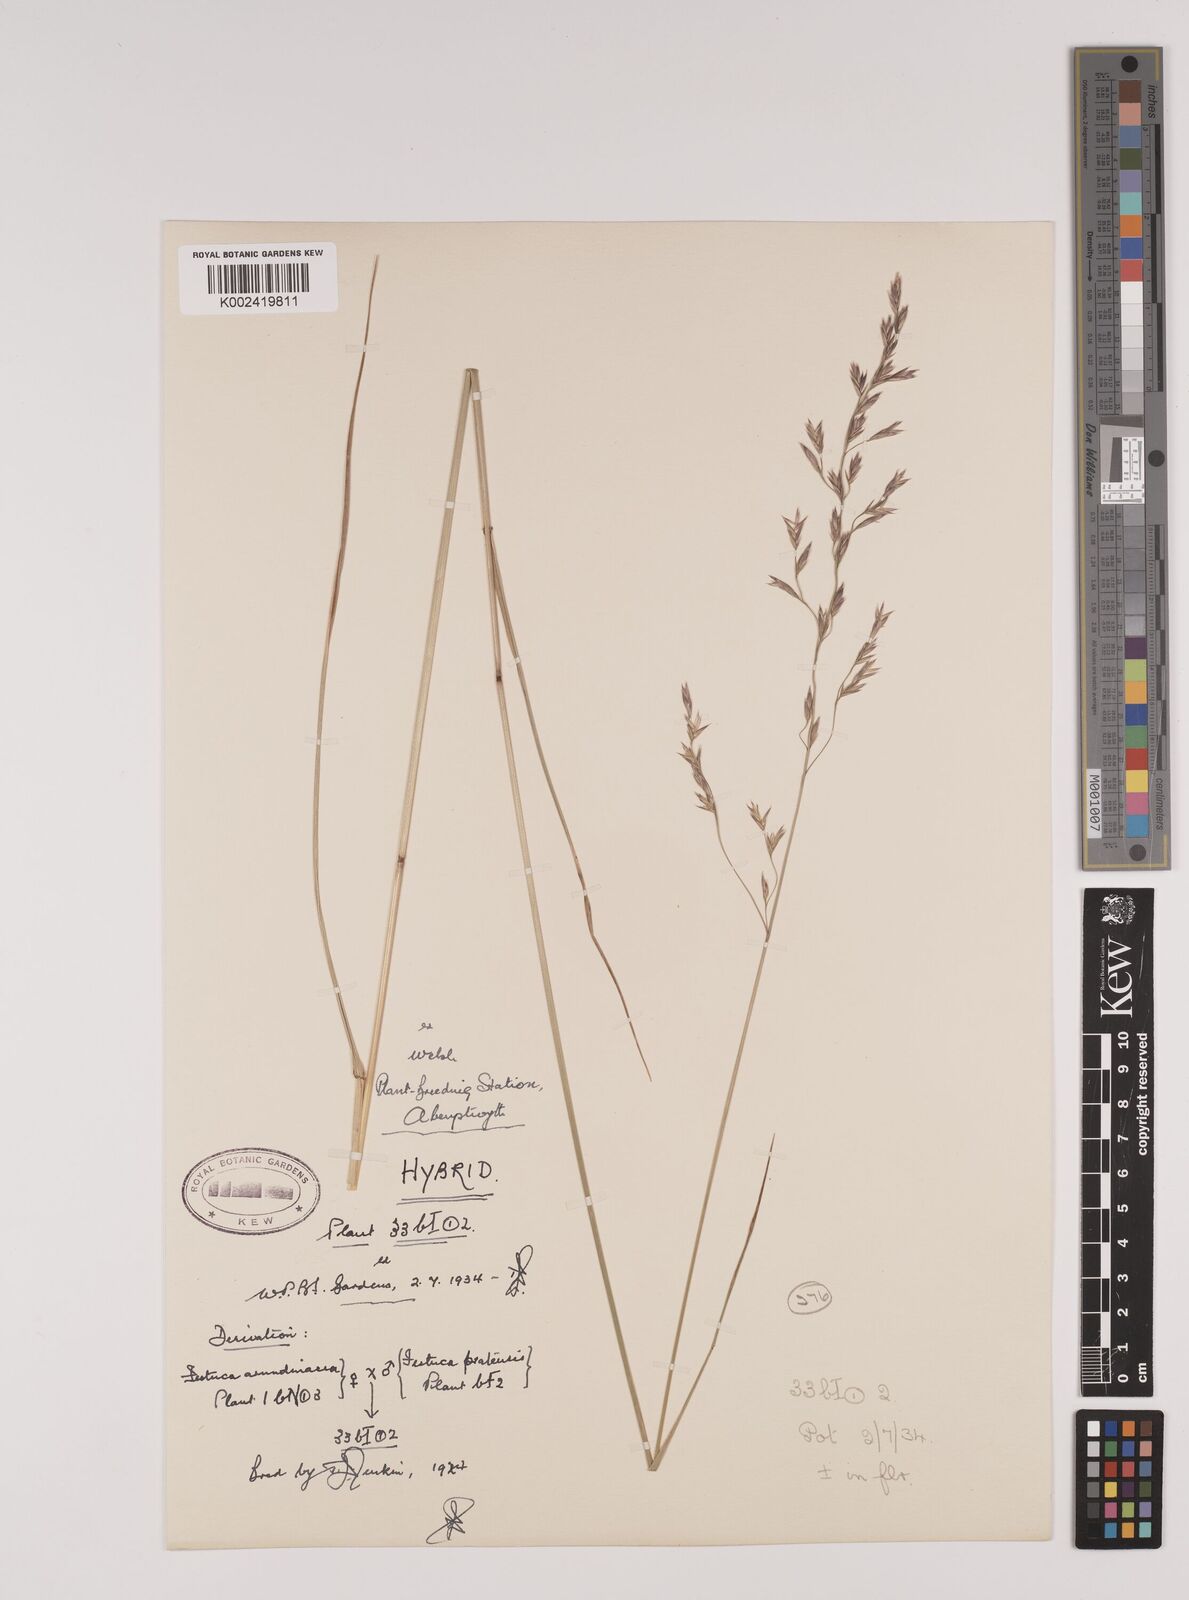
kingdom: Plantae
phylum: Tracheophyta
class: Liliopsida
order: Poales
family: Poaceae
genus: Festuca
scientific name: Festuca rubra
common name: Red fescue
